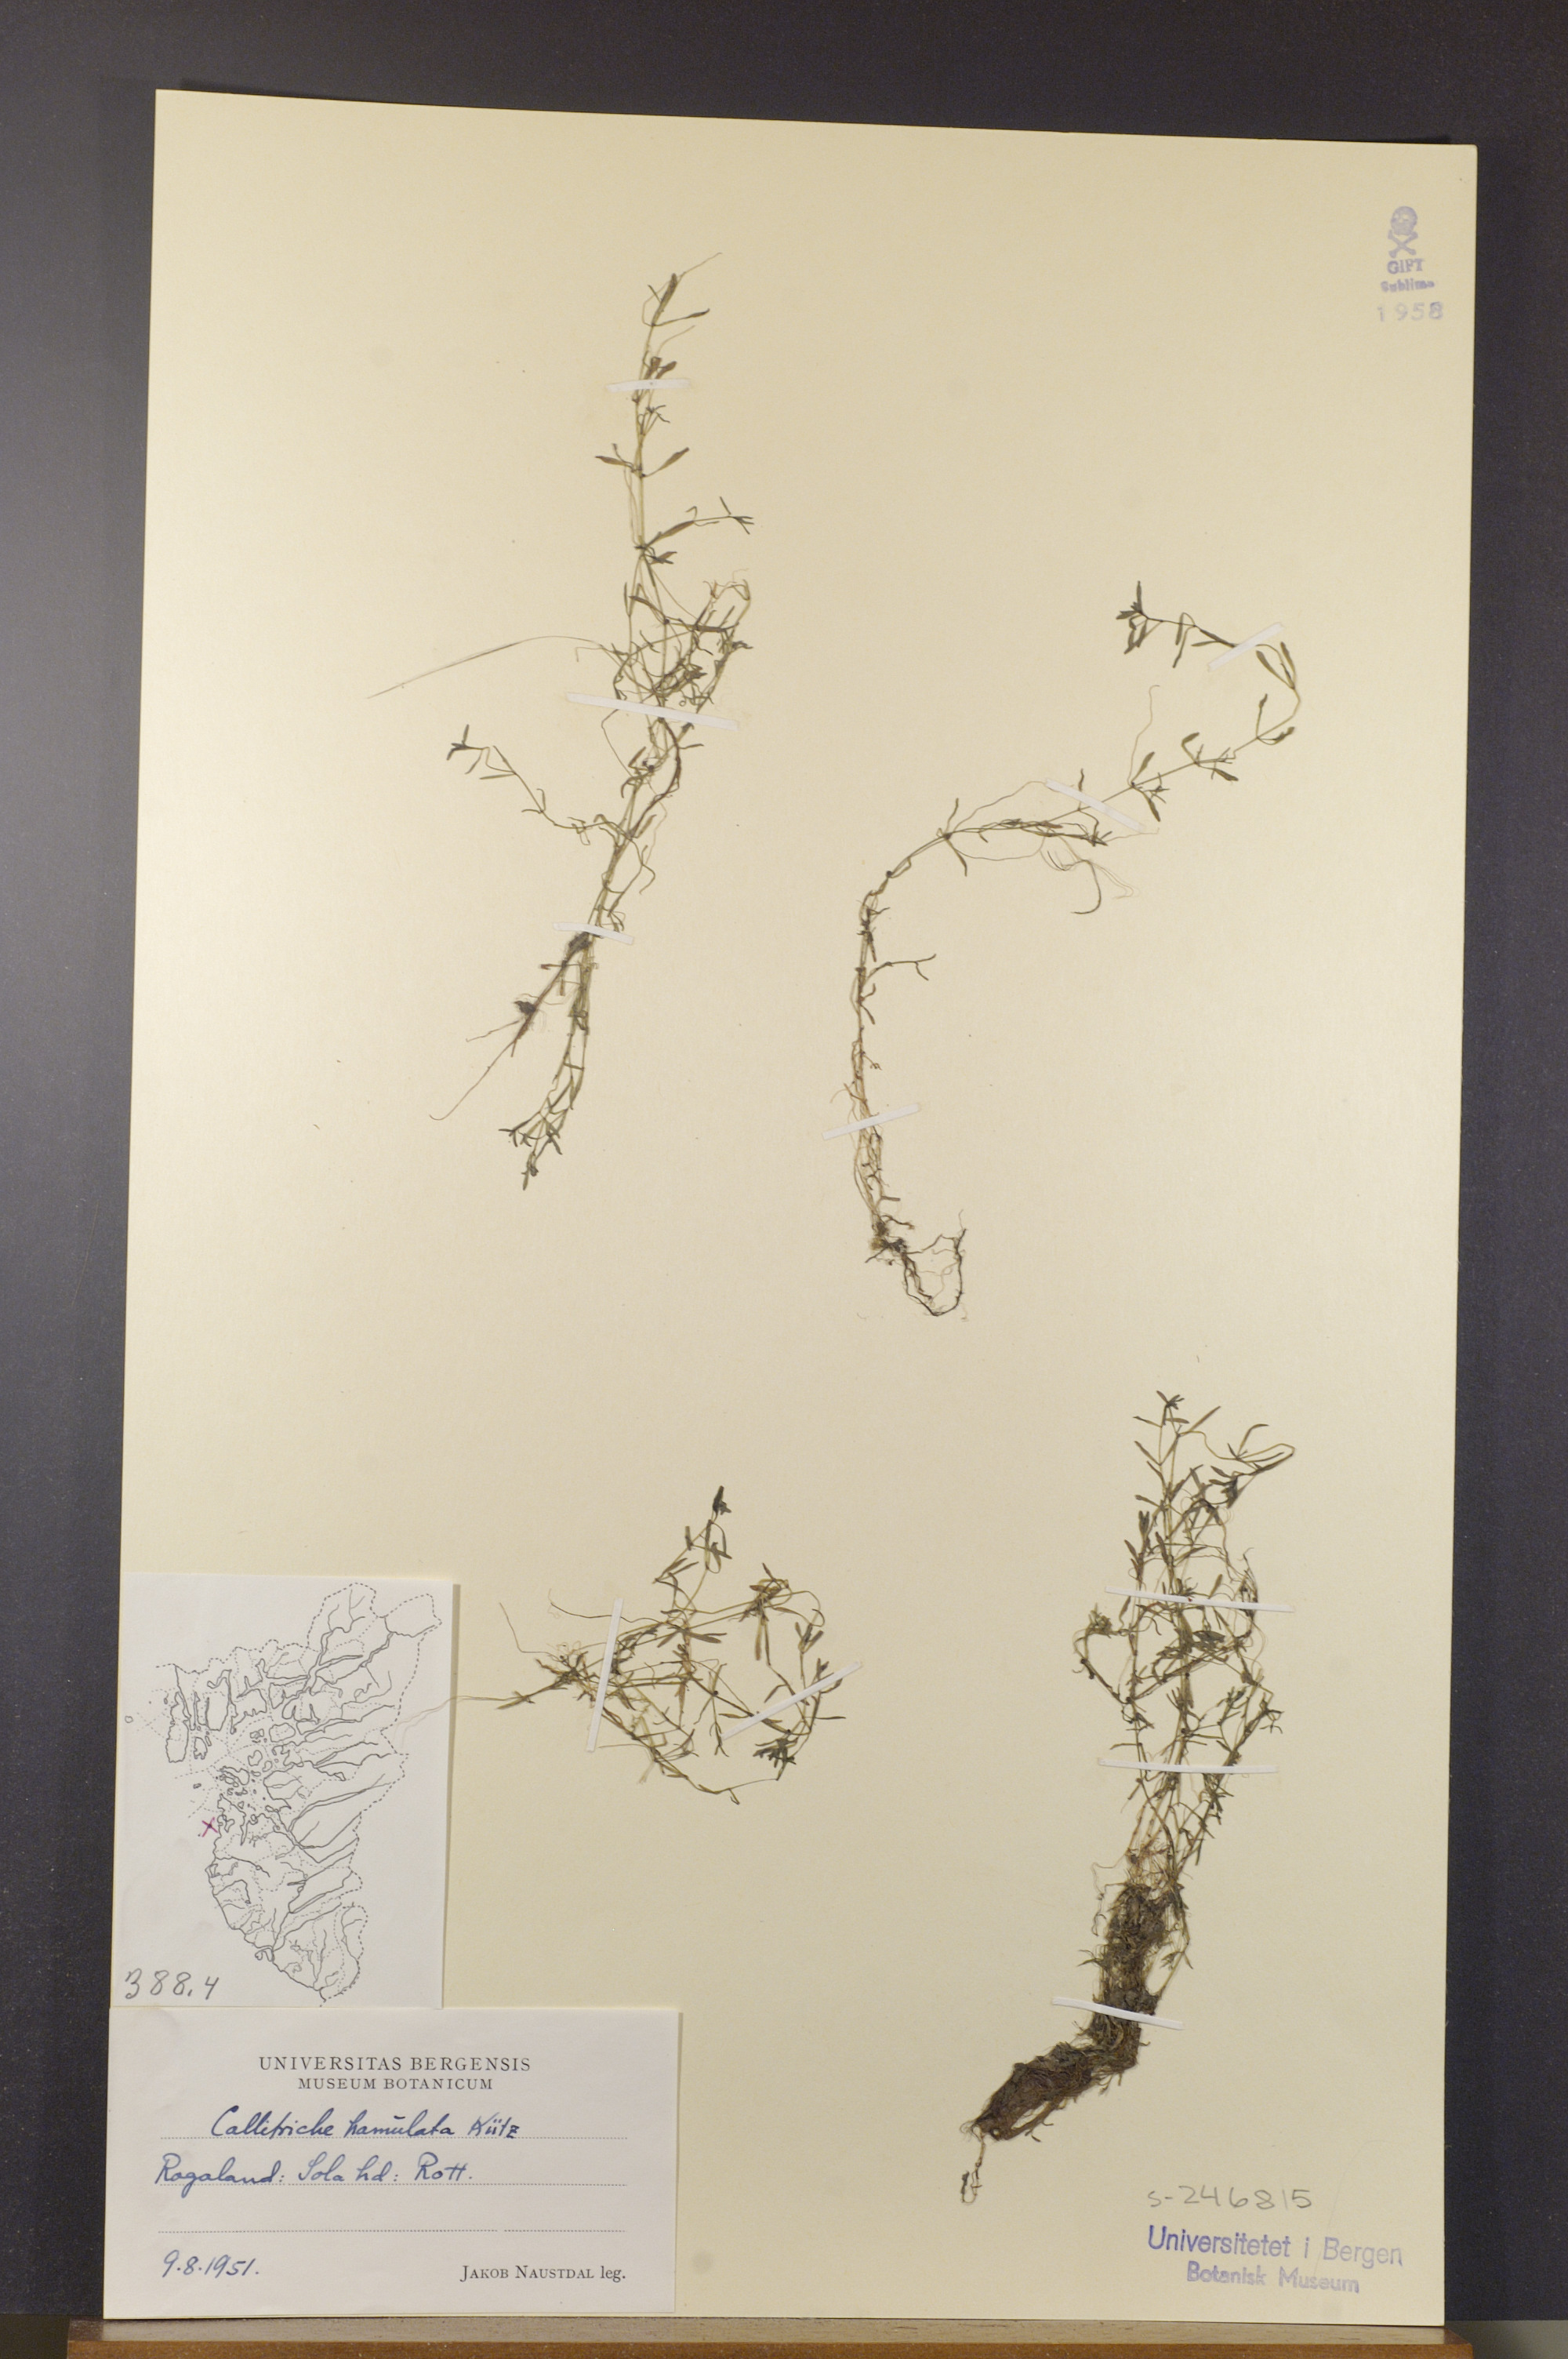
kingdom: Plantae
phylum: Tracheophyta
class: Magnoliopsida
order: Lamiales
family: Plantaginaceae
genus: Callitriche
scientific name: Callitriche palustris
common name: Spring water-starwort
